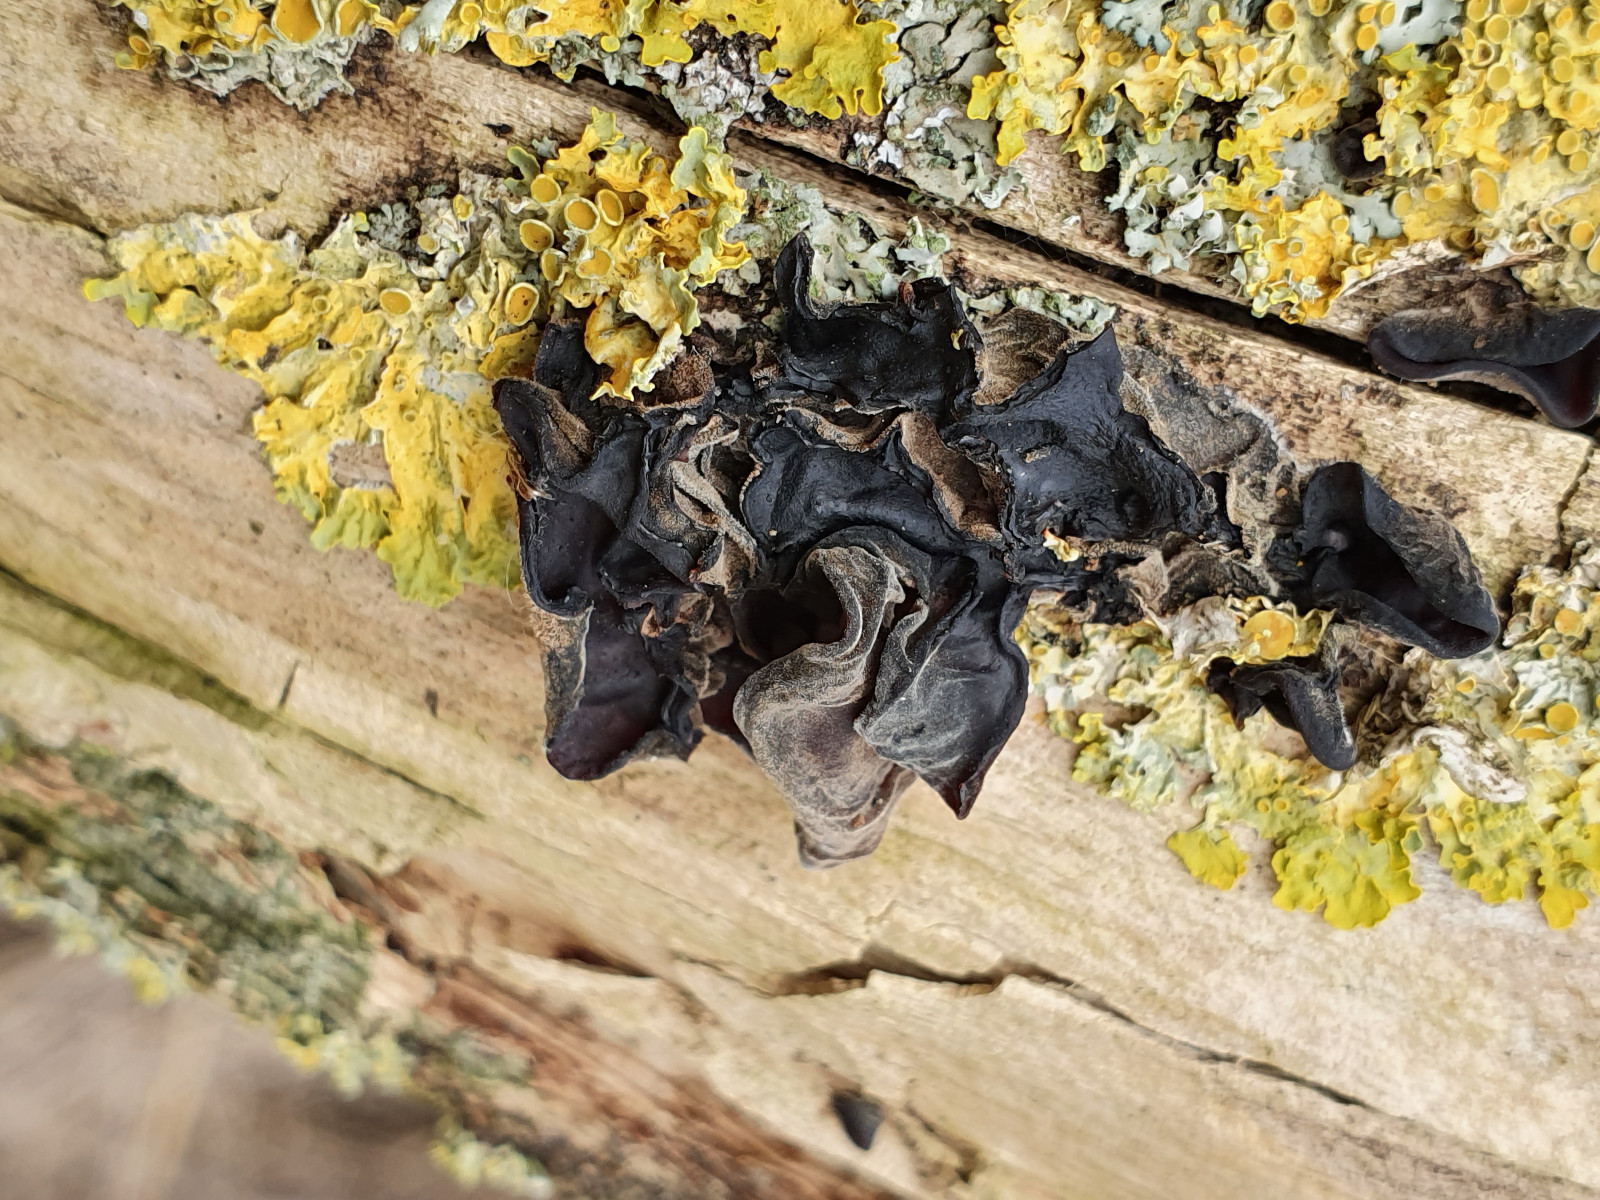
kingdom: Fungi
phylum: Basidiomycota
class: Agaricomycetes
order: Auriculariales
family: Auriculariaceae
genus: Auricularia
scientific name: Auricularia auricula-judae
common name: almindelig judasøre
